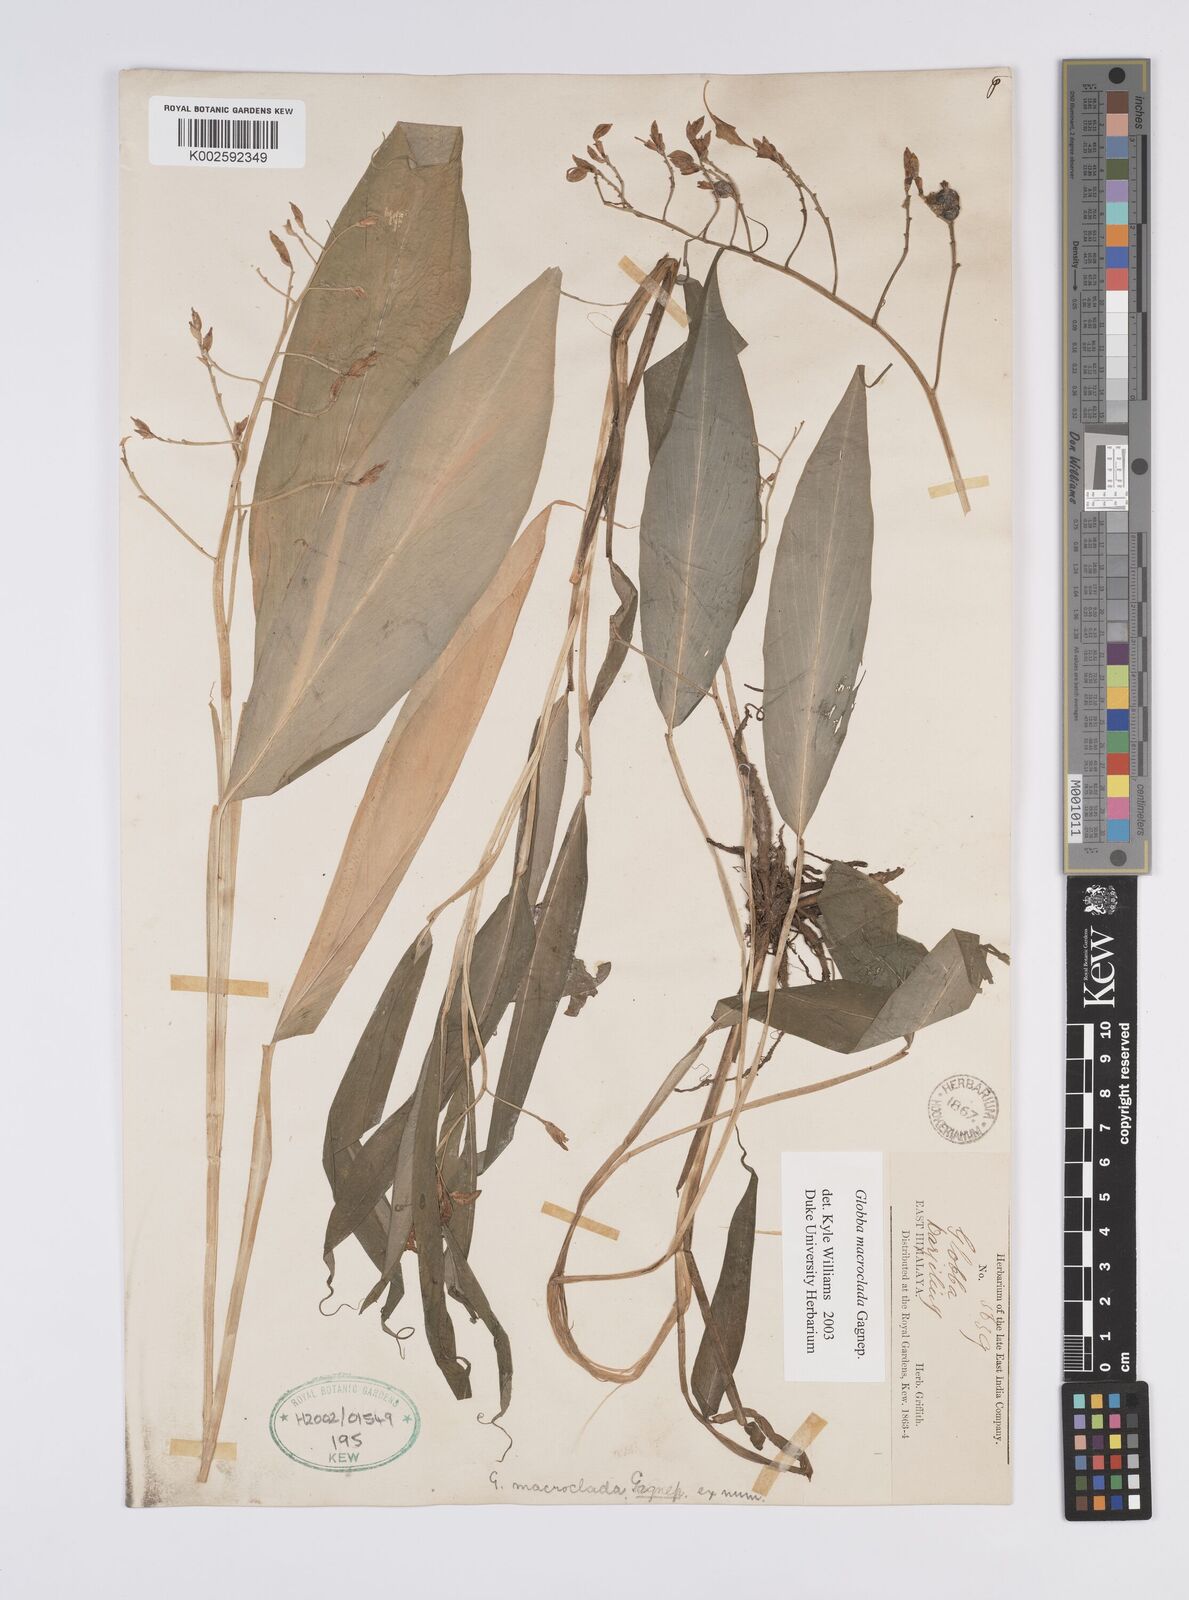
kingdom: Plantae
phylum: Tracheophyta
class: Liliopsida
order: Zingiberales
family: Zingiberaceae
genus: Globba
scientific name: Globba macroclada
